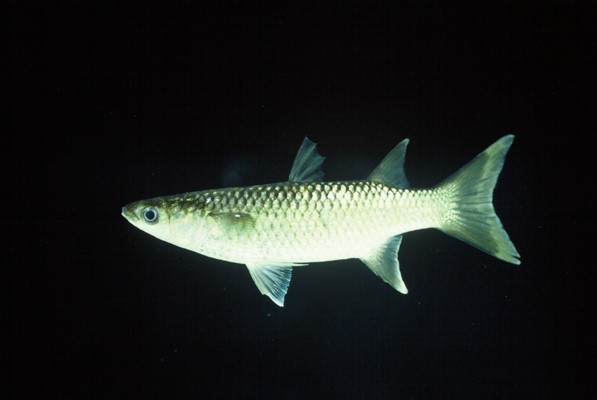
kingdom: Animalia
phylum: Chordata
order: Mugiliformes
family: Mugilidae
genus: Planiliza
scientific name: Planiliza alata
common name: Diamond mullet
